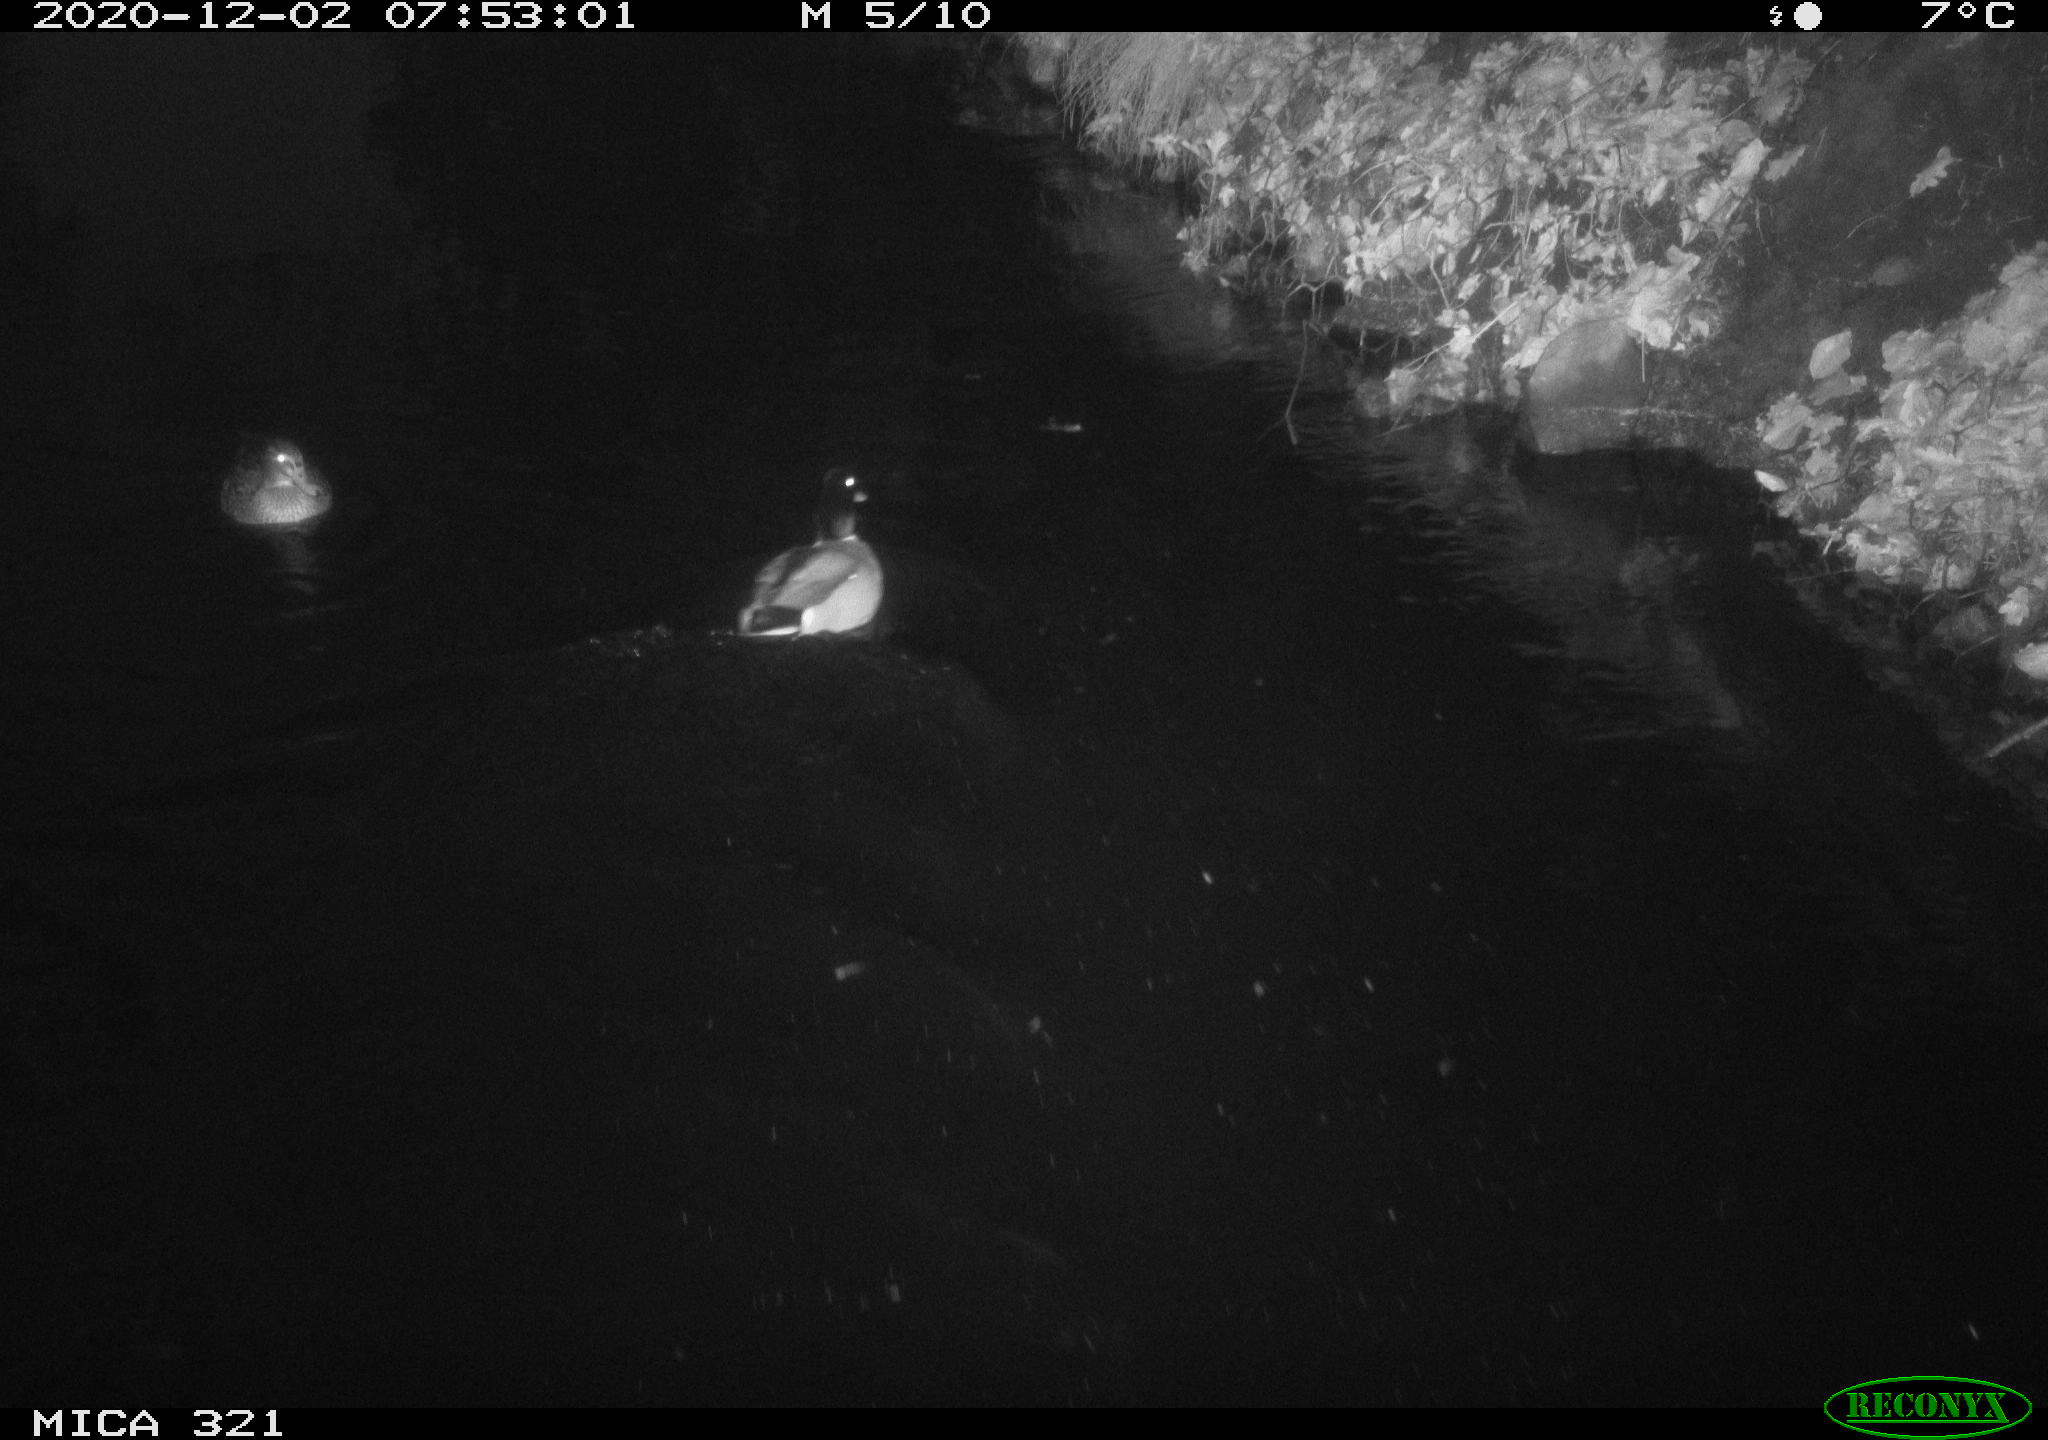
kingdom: Animalia
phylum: Chordata
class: Aves
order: Anseriformes
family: Anatidae
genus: Anas
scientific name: Anas platyrhynchos
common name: Mallard
